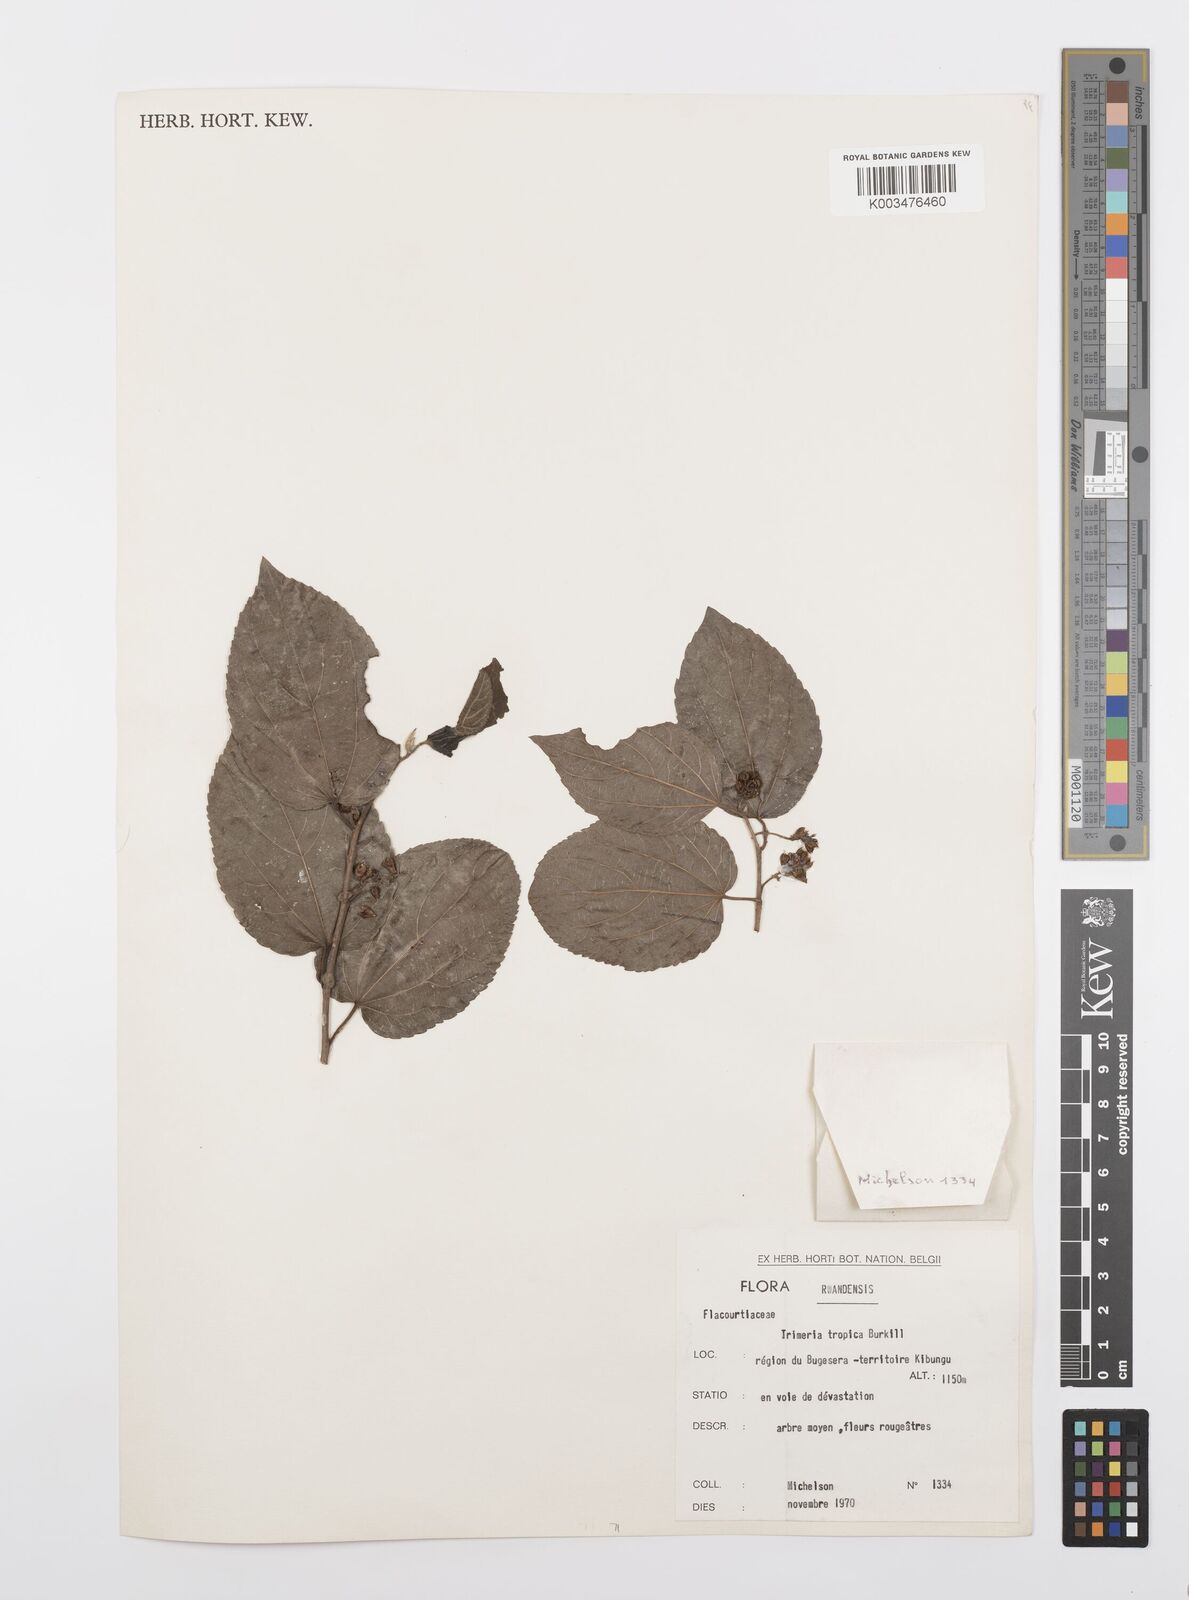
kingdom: Plantae
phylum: Tracheophyta
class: Magnoliopsida
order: Malpighiales
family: Salicaceae
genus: Trimeria
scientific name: Trimeria grandifolia
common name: Wild mulberry
